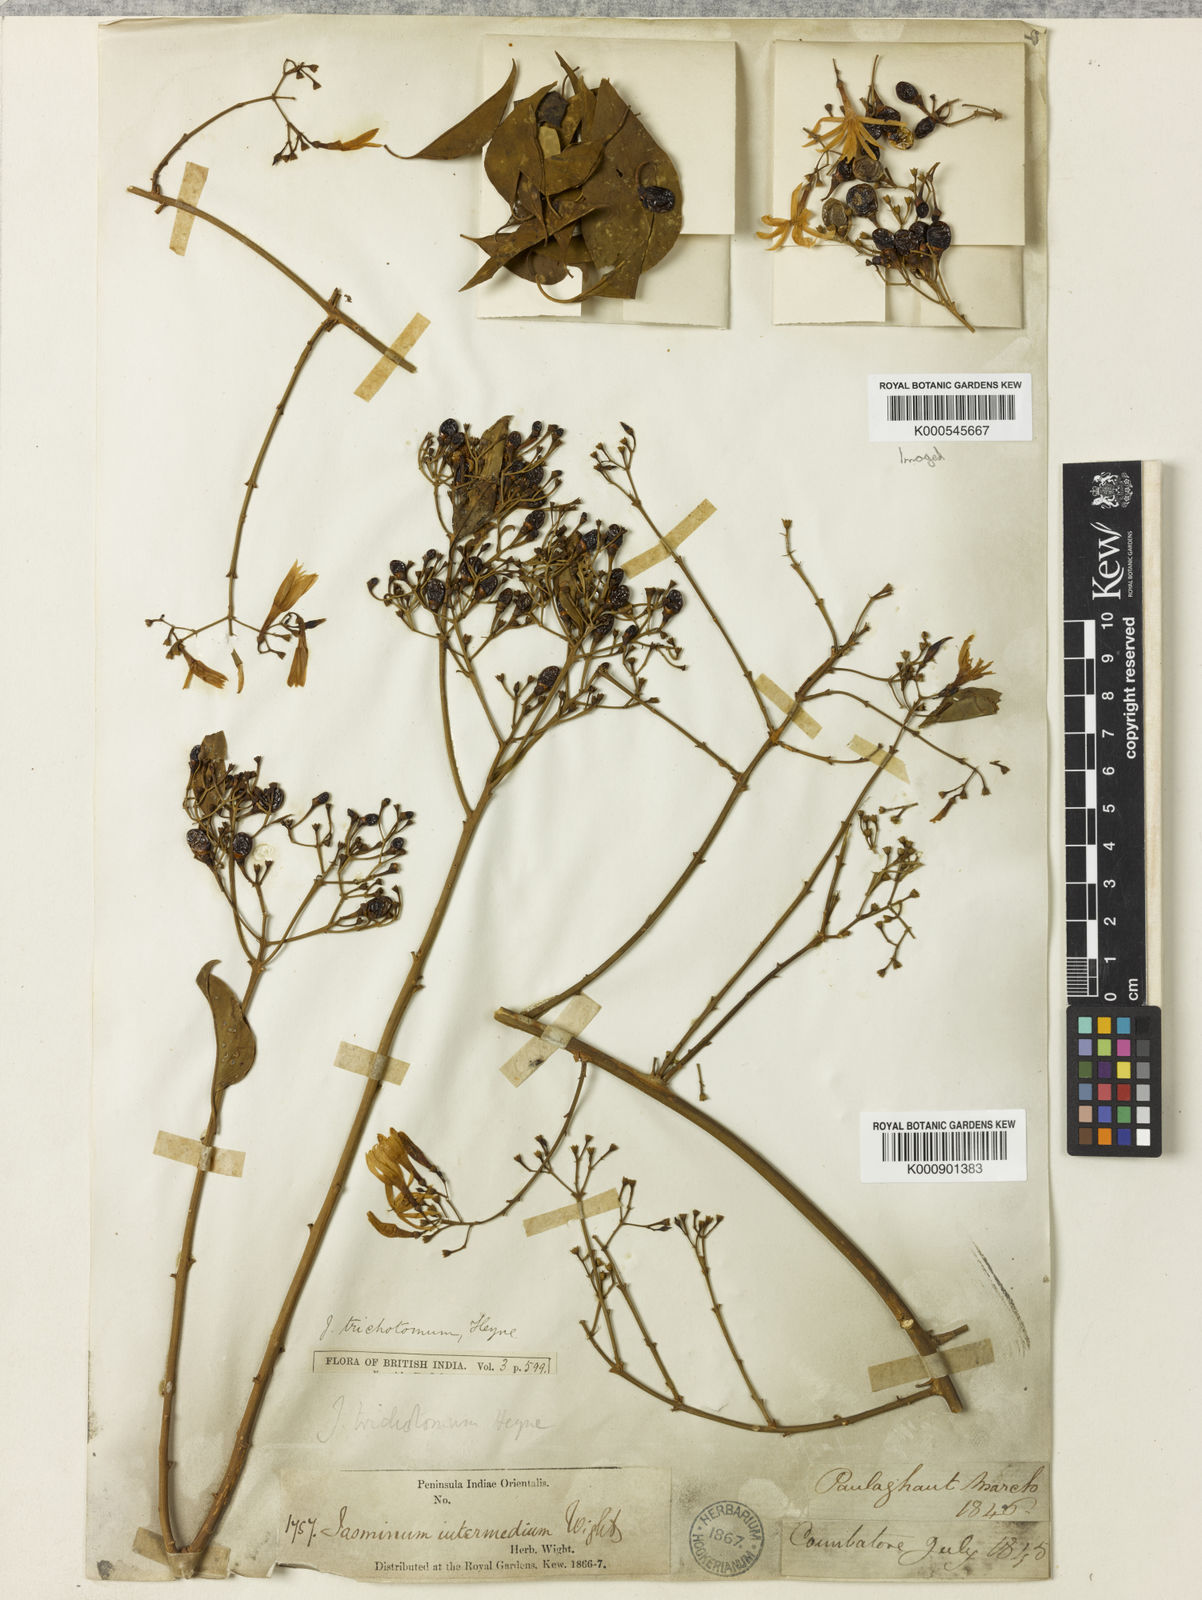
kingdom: Plantae
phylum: Tracheophyta
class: Magnoliopsida
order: Lamiales
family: Oleaceae
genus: Jasminum
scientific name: Jasminum trichotomum
